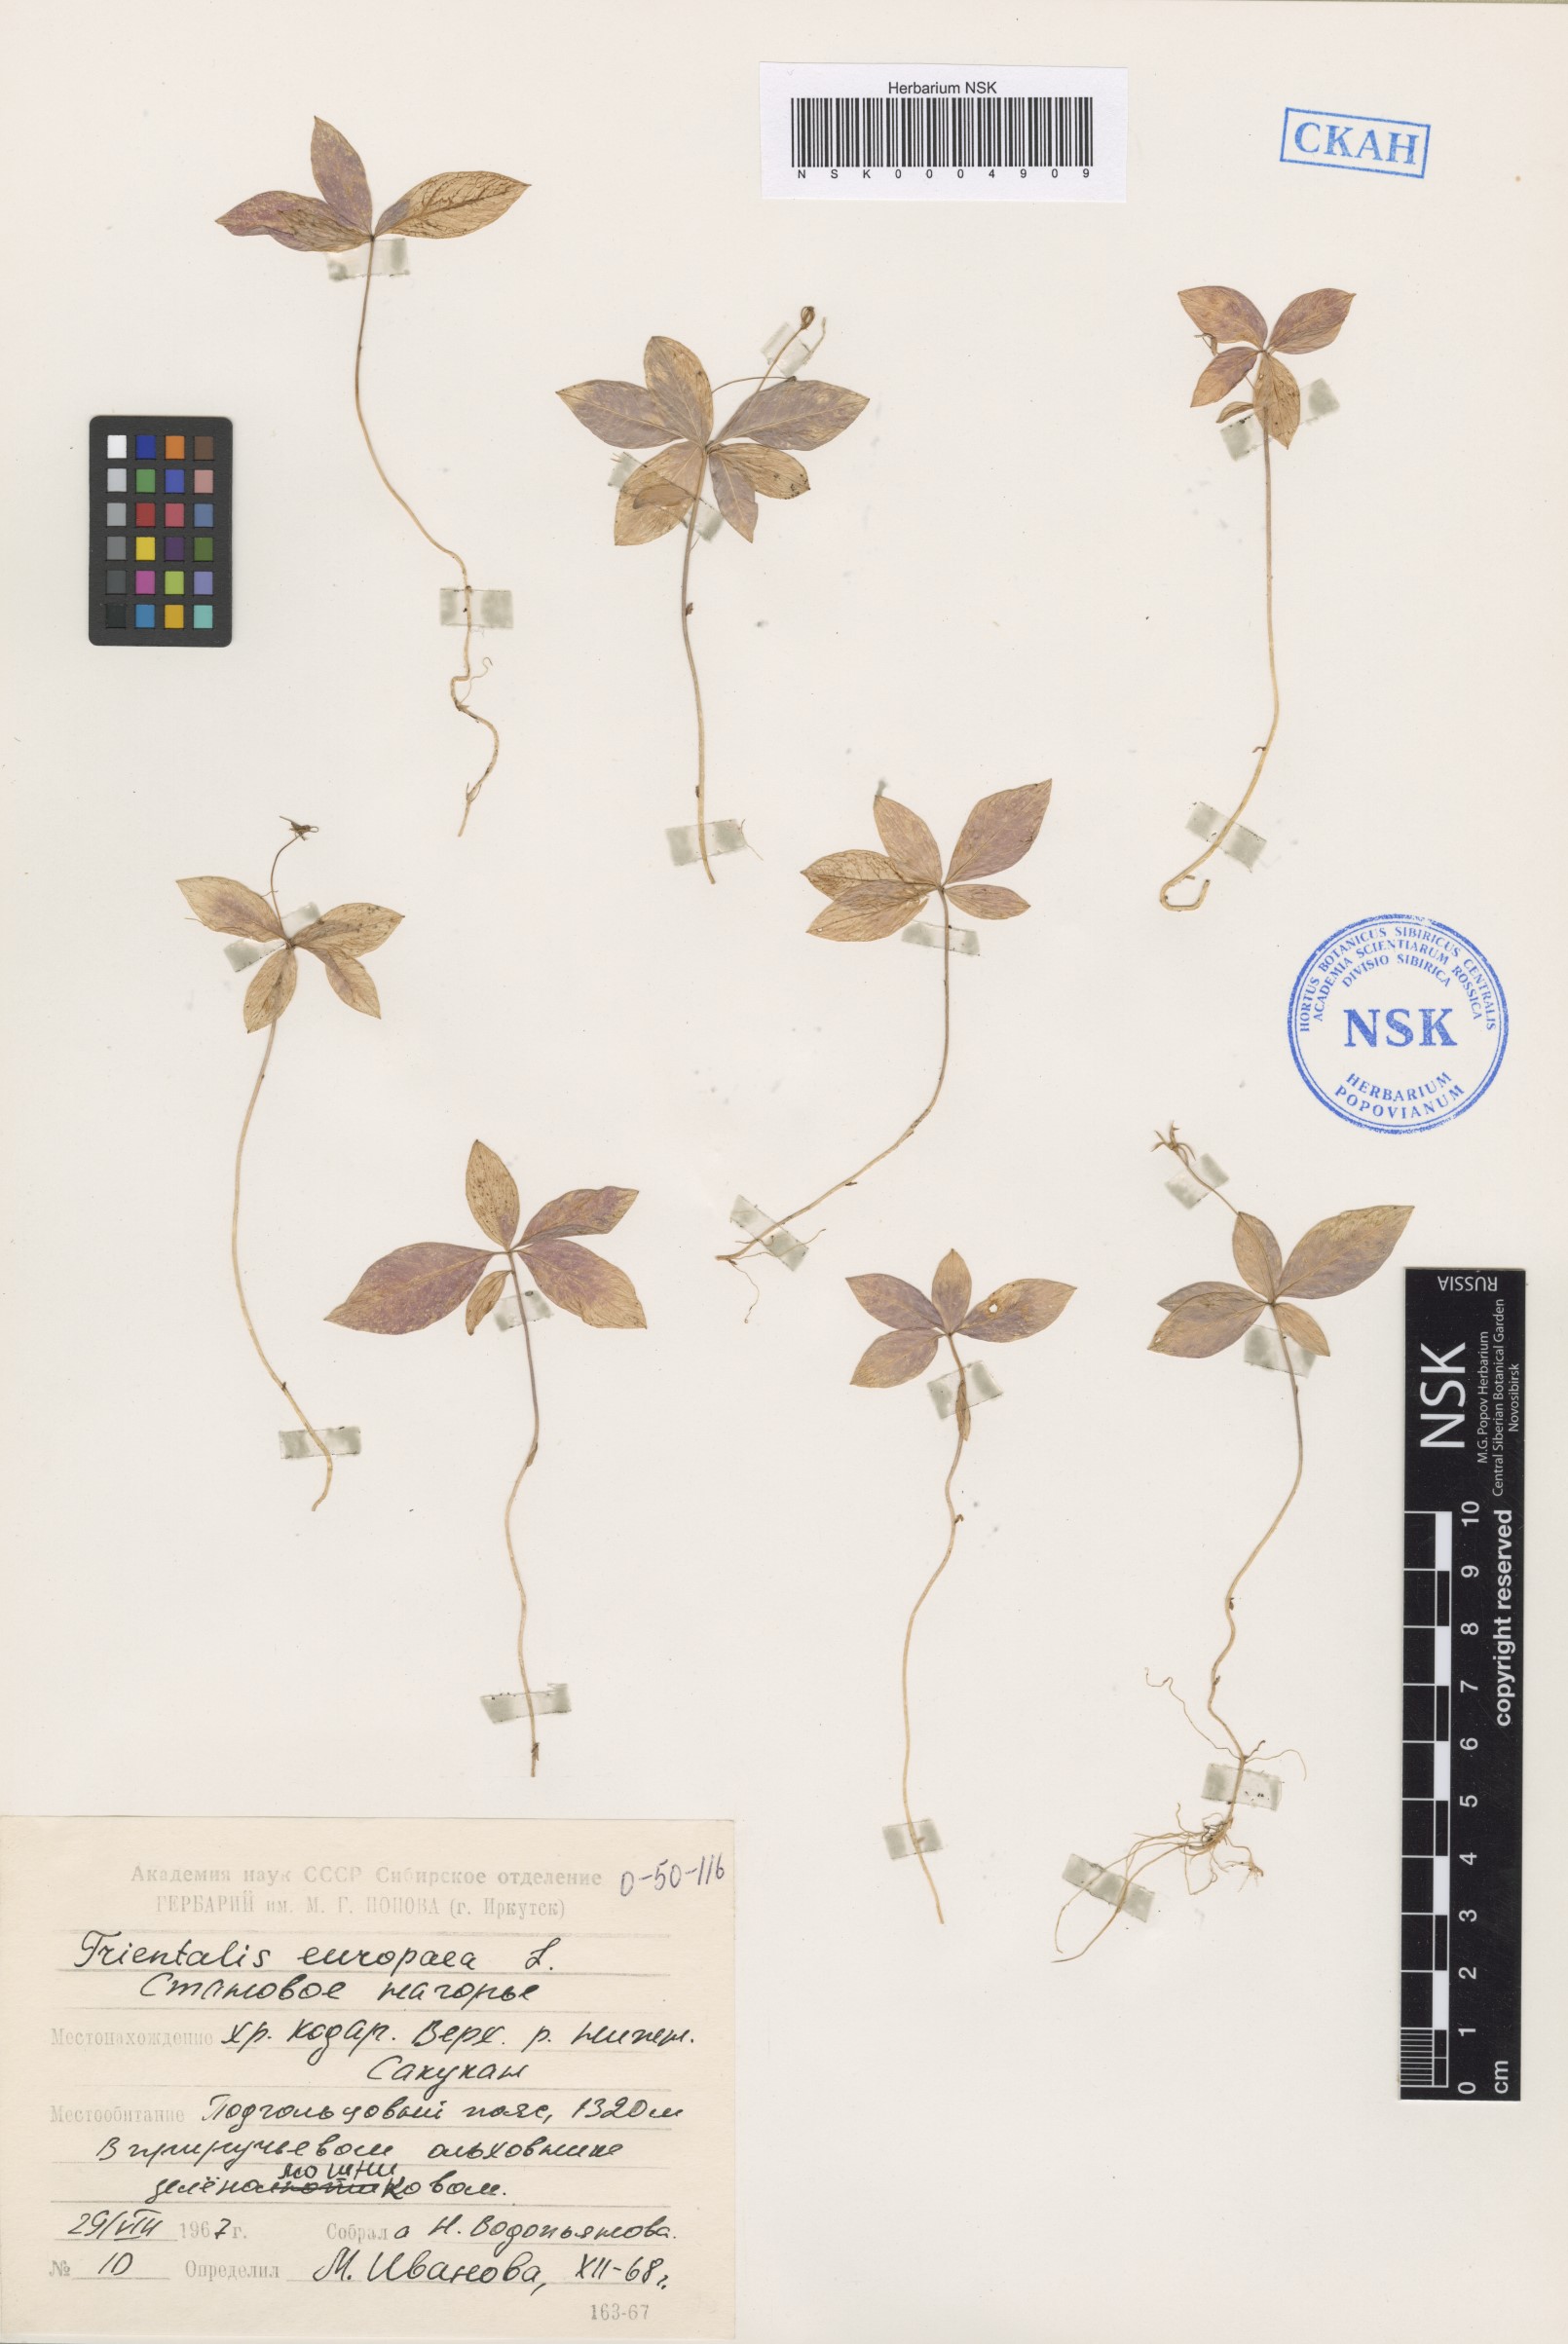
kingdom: Plantae
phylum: Tracheophyta
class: Magnoliopsida
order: Ericales
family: Primulaceae
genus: Lysimachia
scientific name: Lysimachia europaea
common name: Arctic starflower
